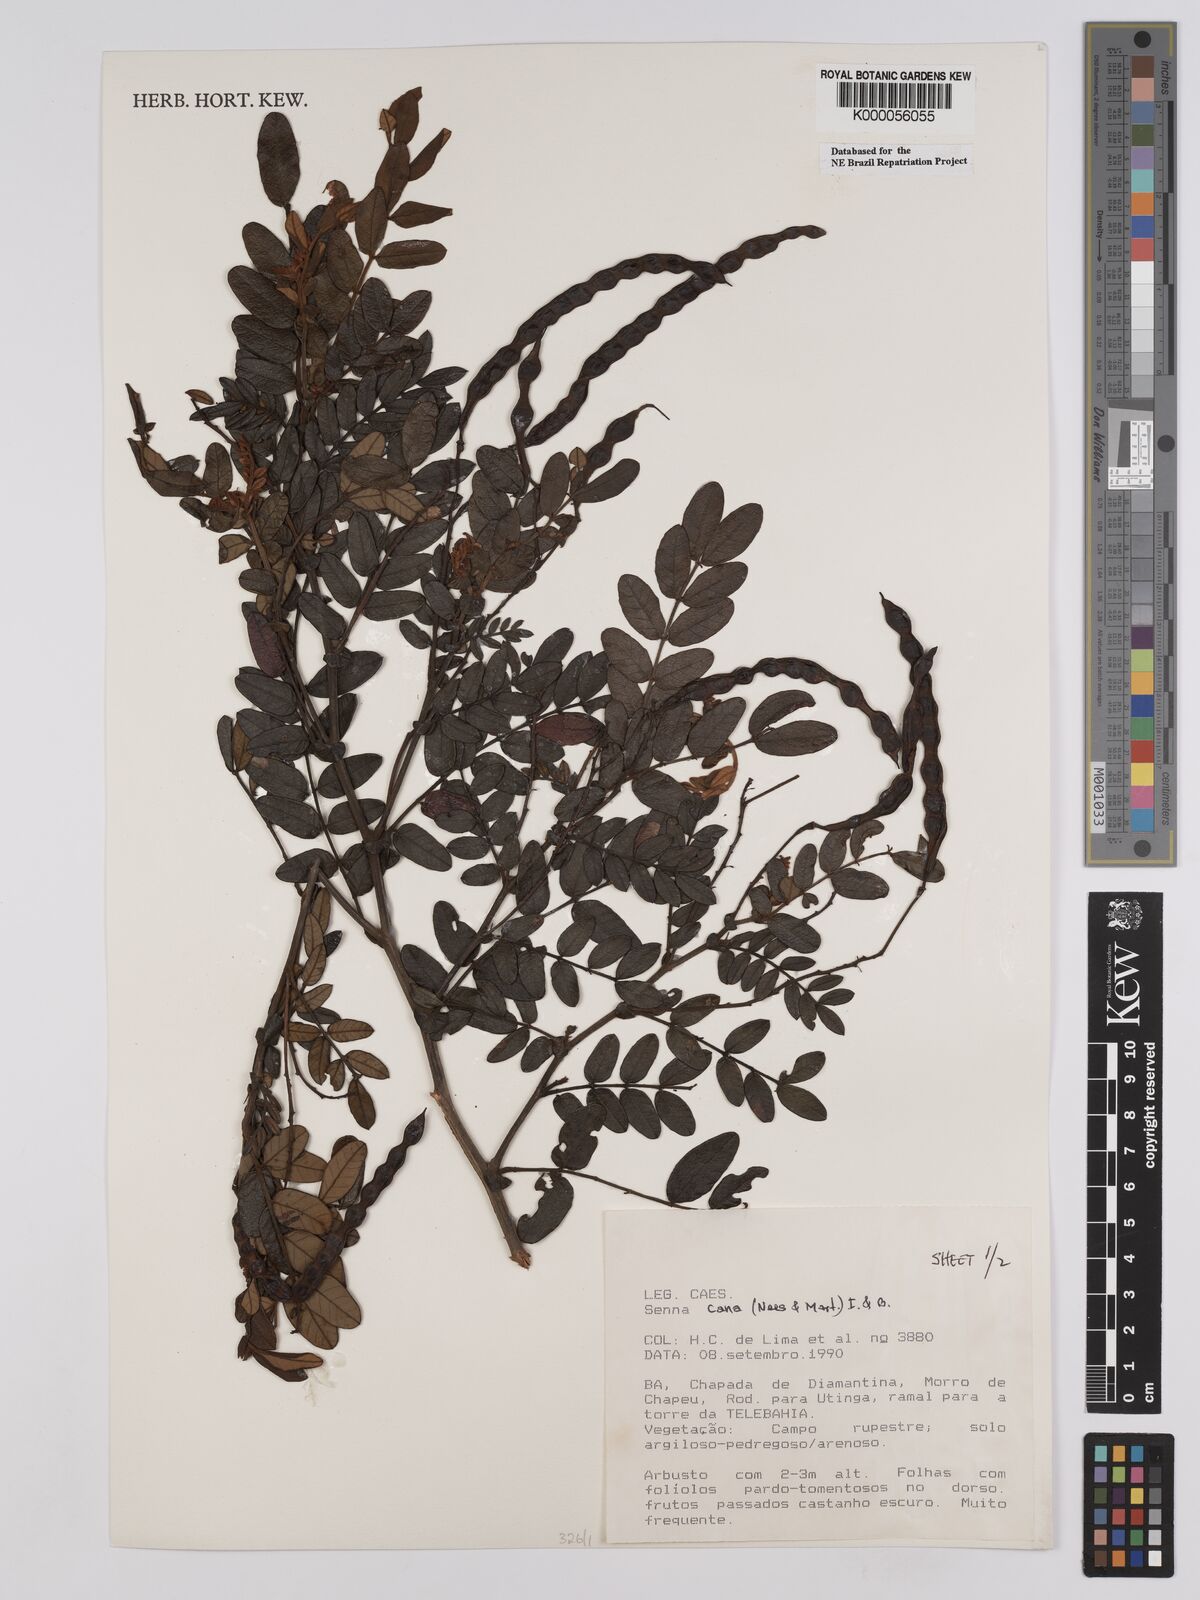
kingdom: Plantae
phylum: Tracheophyta
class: Magnoliopsida
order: Fabales
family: Fabaceae
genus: Senna
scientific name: Senna cana
